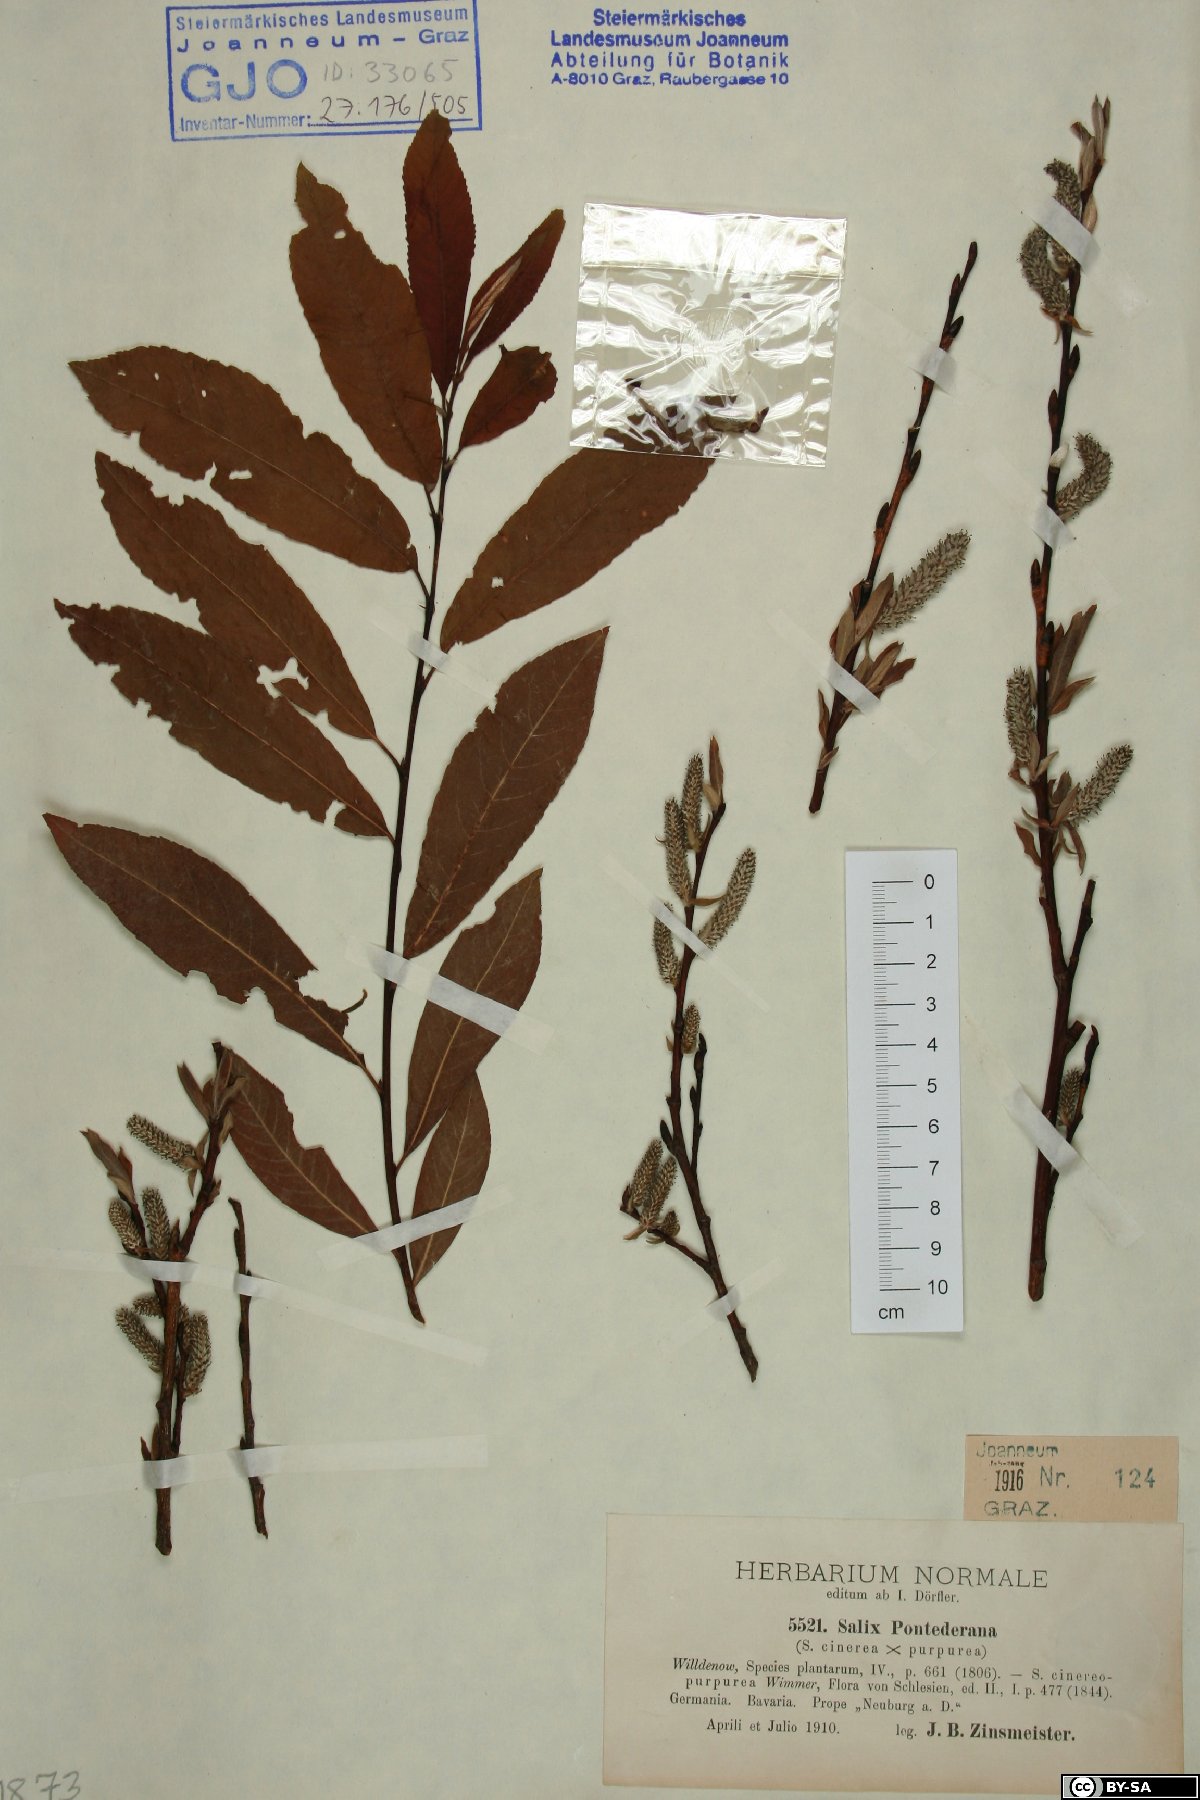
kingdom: Plantae
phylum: Tracheophyta
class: Magnoliopsida
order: Malpighiales
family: Salicaceae
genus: Salix
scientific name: Salix pontederana
